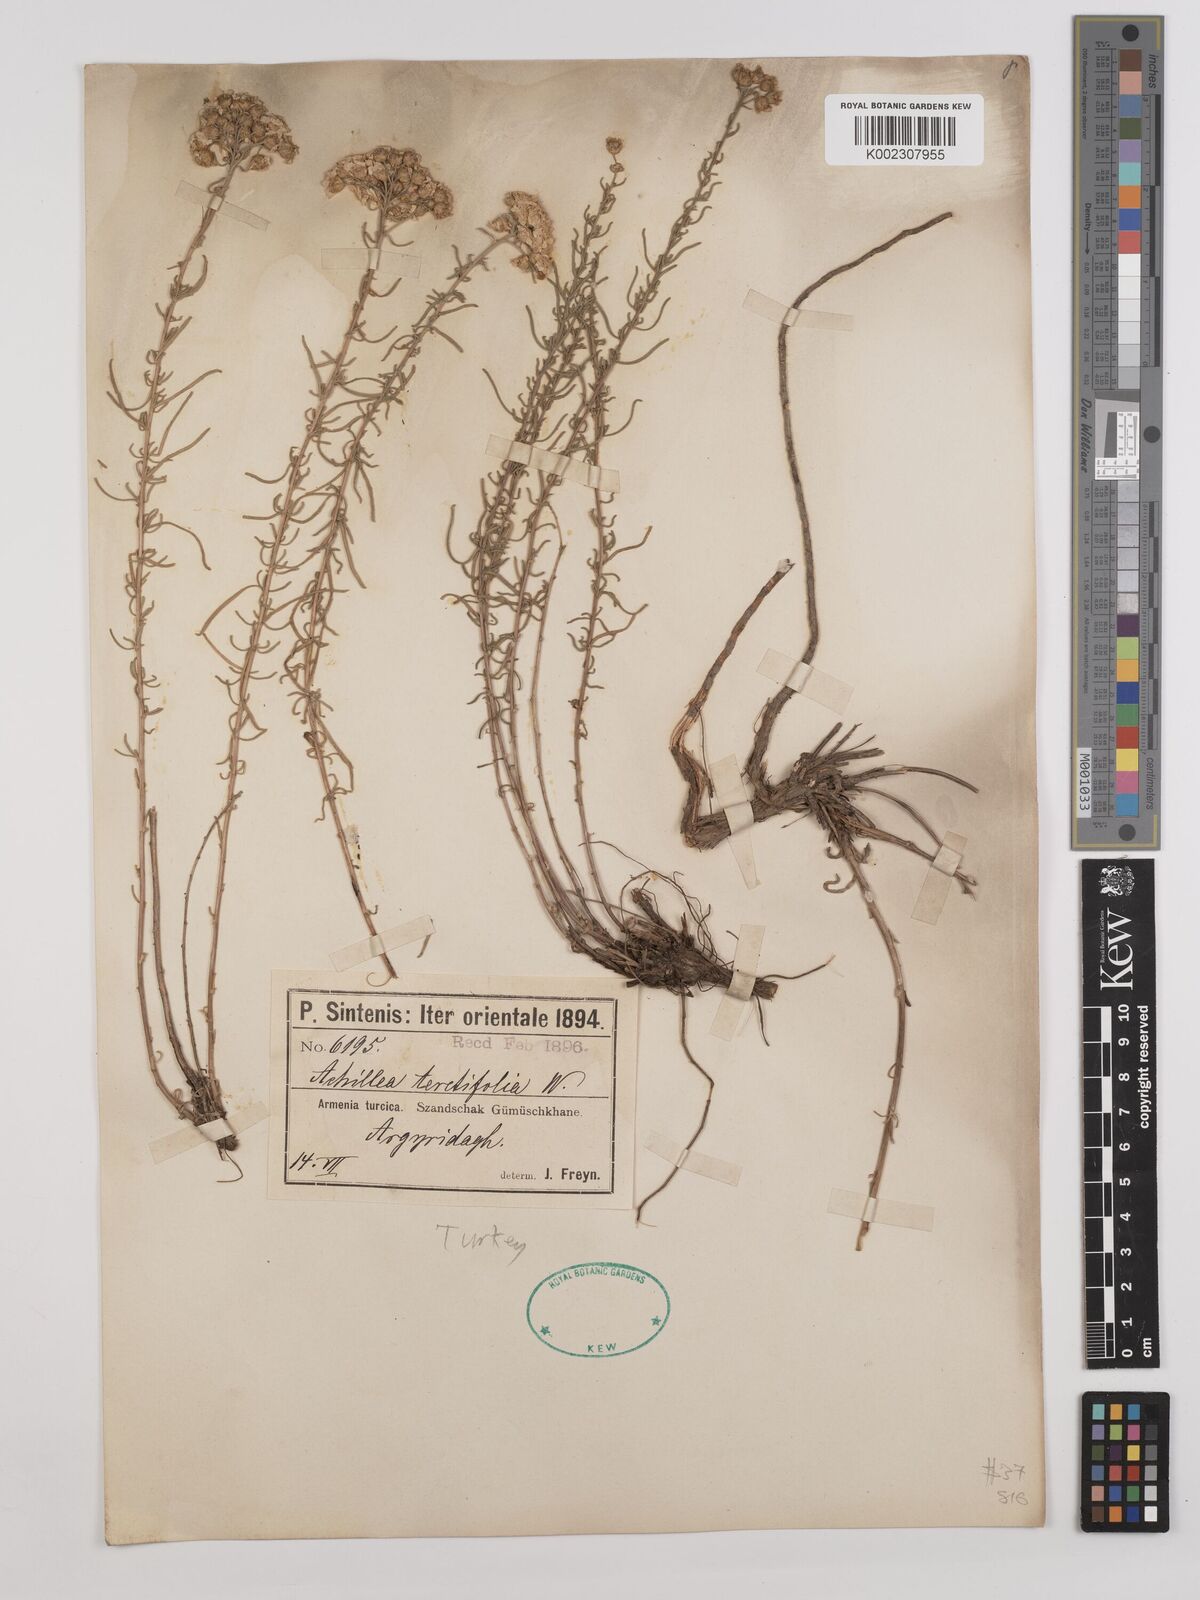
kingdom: Plantae
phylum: Tracheophyta
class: Magnoliopsida
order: Asterales
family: Asteraceae
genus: Achillea
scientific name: Achillea wilhelmsii
